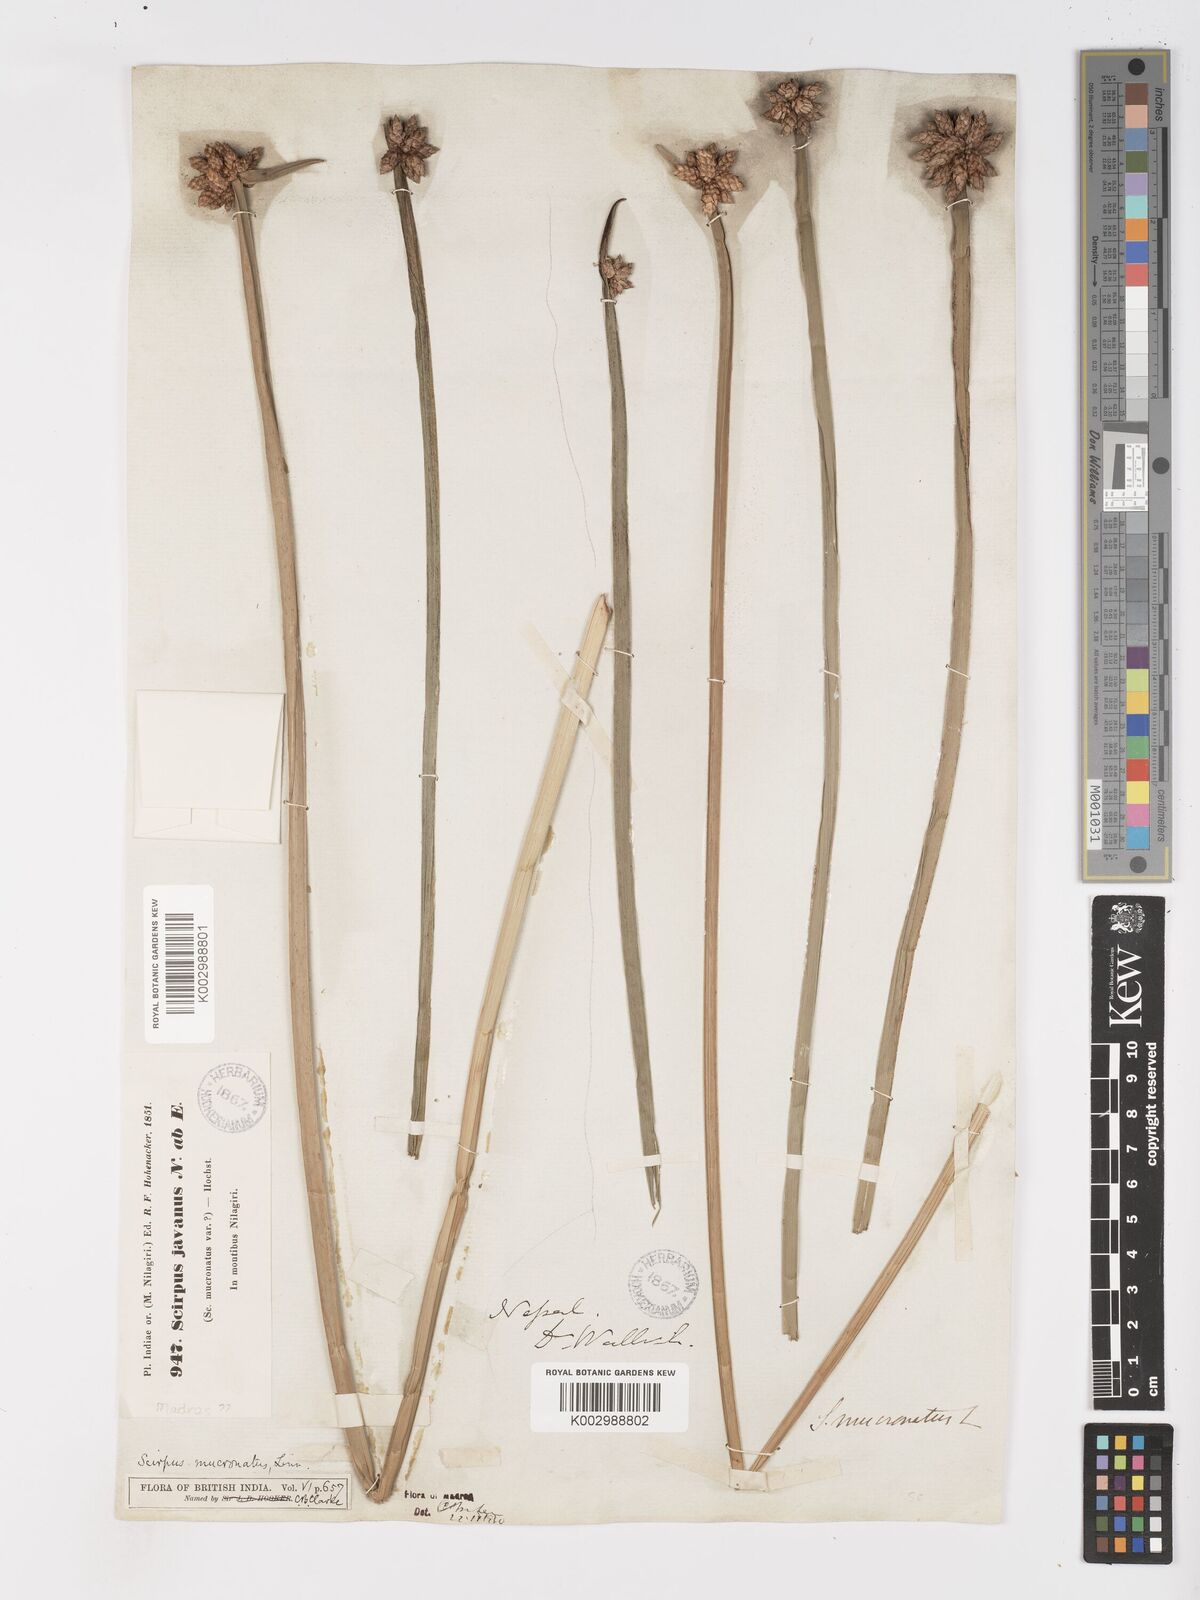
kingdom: Plantae
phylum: Tracheophyta
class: Liliopsida
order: Poales
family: Cyperaceae
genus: Schoenoplectiella
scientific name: Schoenoplectiella mucronata
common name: Bog bulrush
